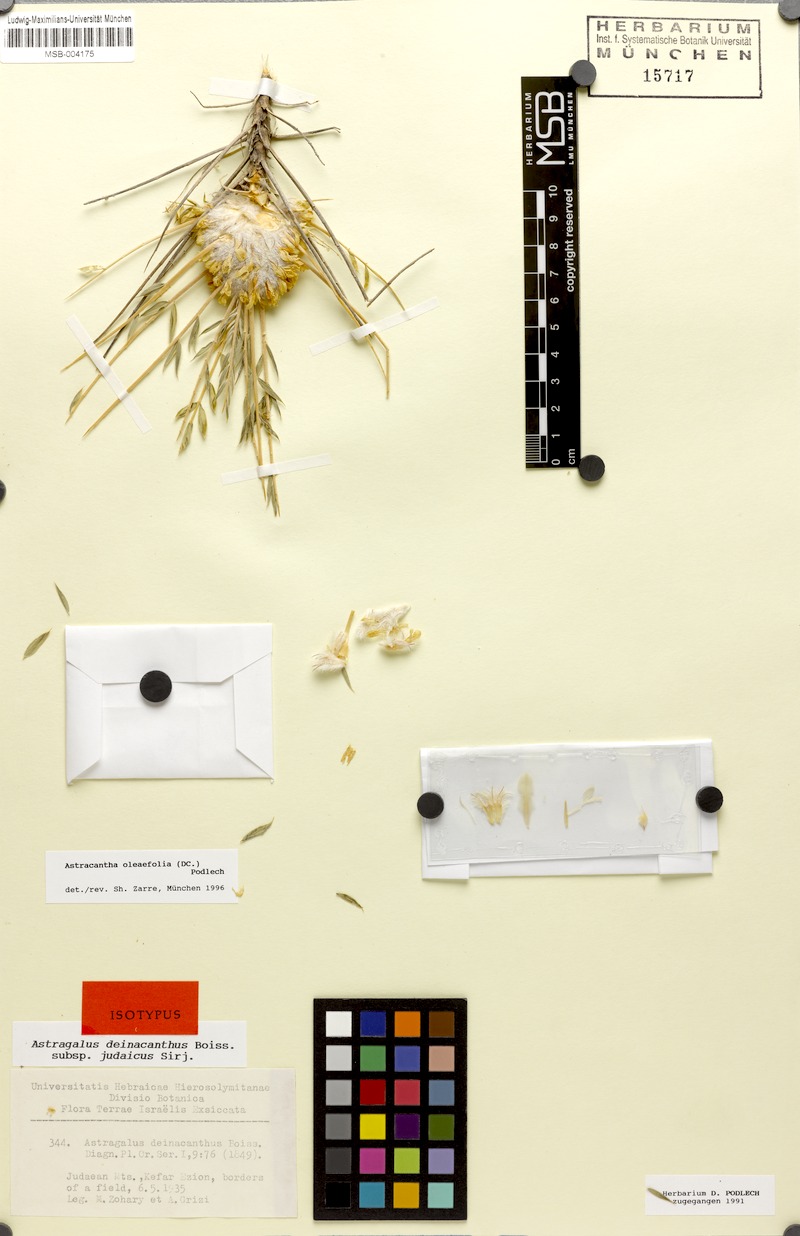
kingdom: Plantae
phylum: Tracheophyta
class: Magnoliopsida
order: Fabales
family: Fabaceae
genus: Astragalus
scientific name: Astragalus oleifolius
